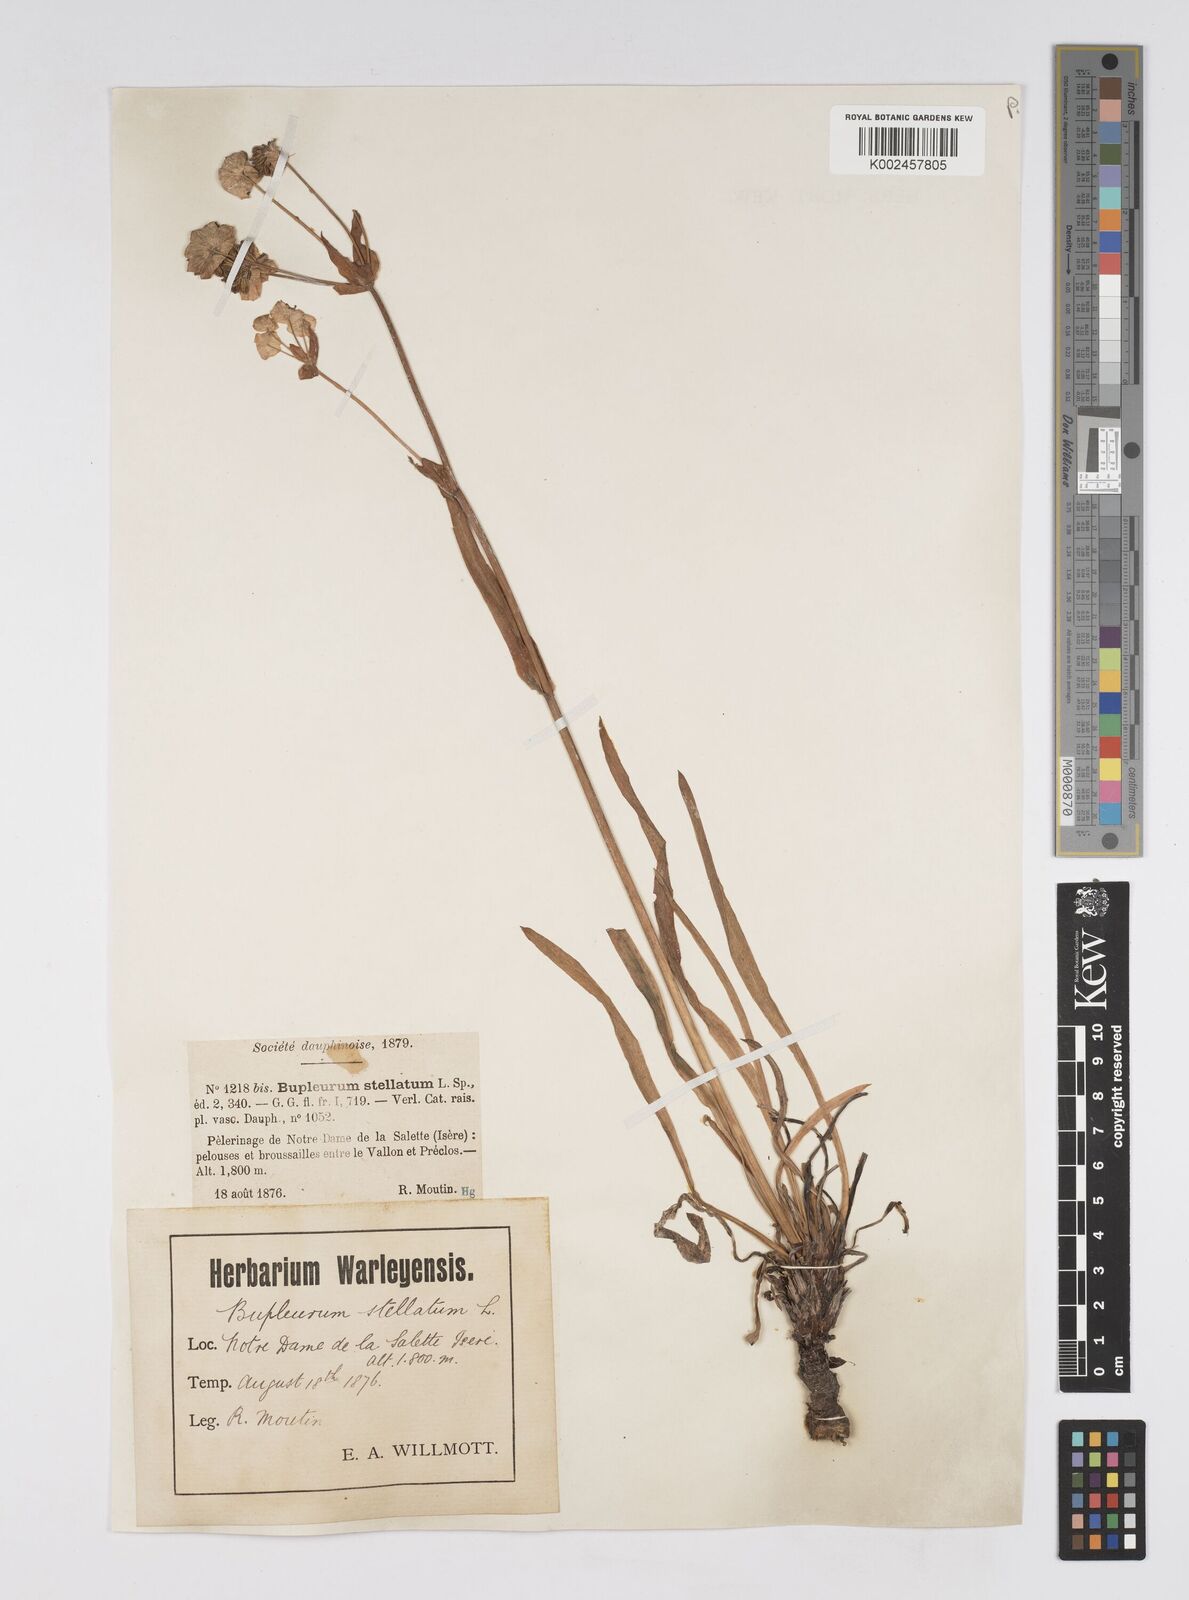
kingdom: Plantae
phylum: Tracheophyta
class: Magnoliopsida
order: Apiales
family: Apiaceae
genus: Bupleurum
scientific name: Bupleurum stellatum
